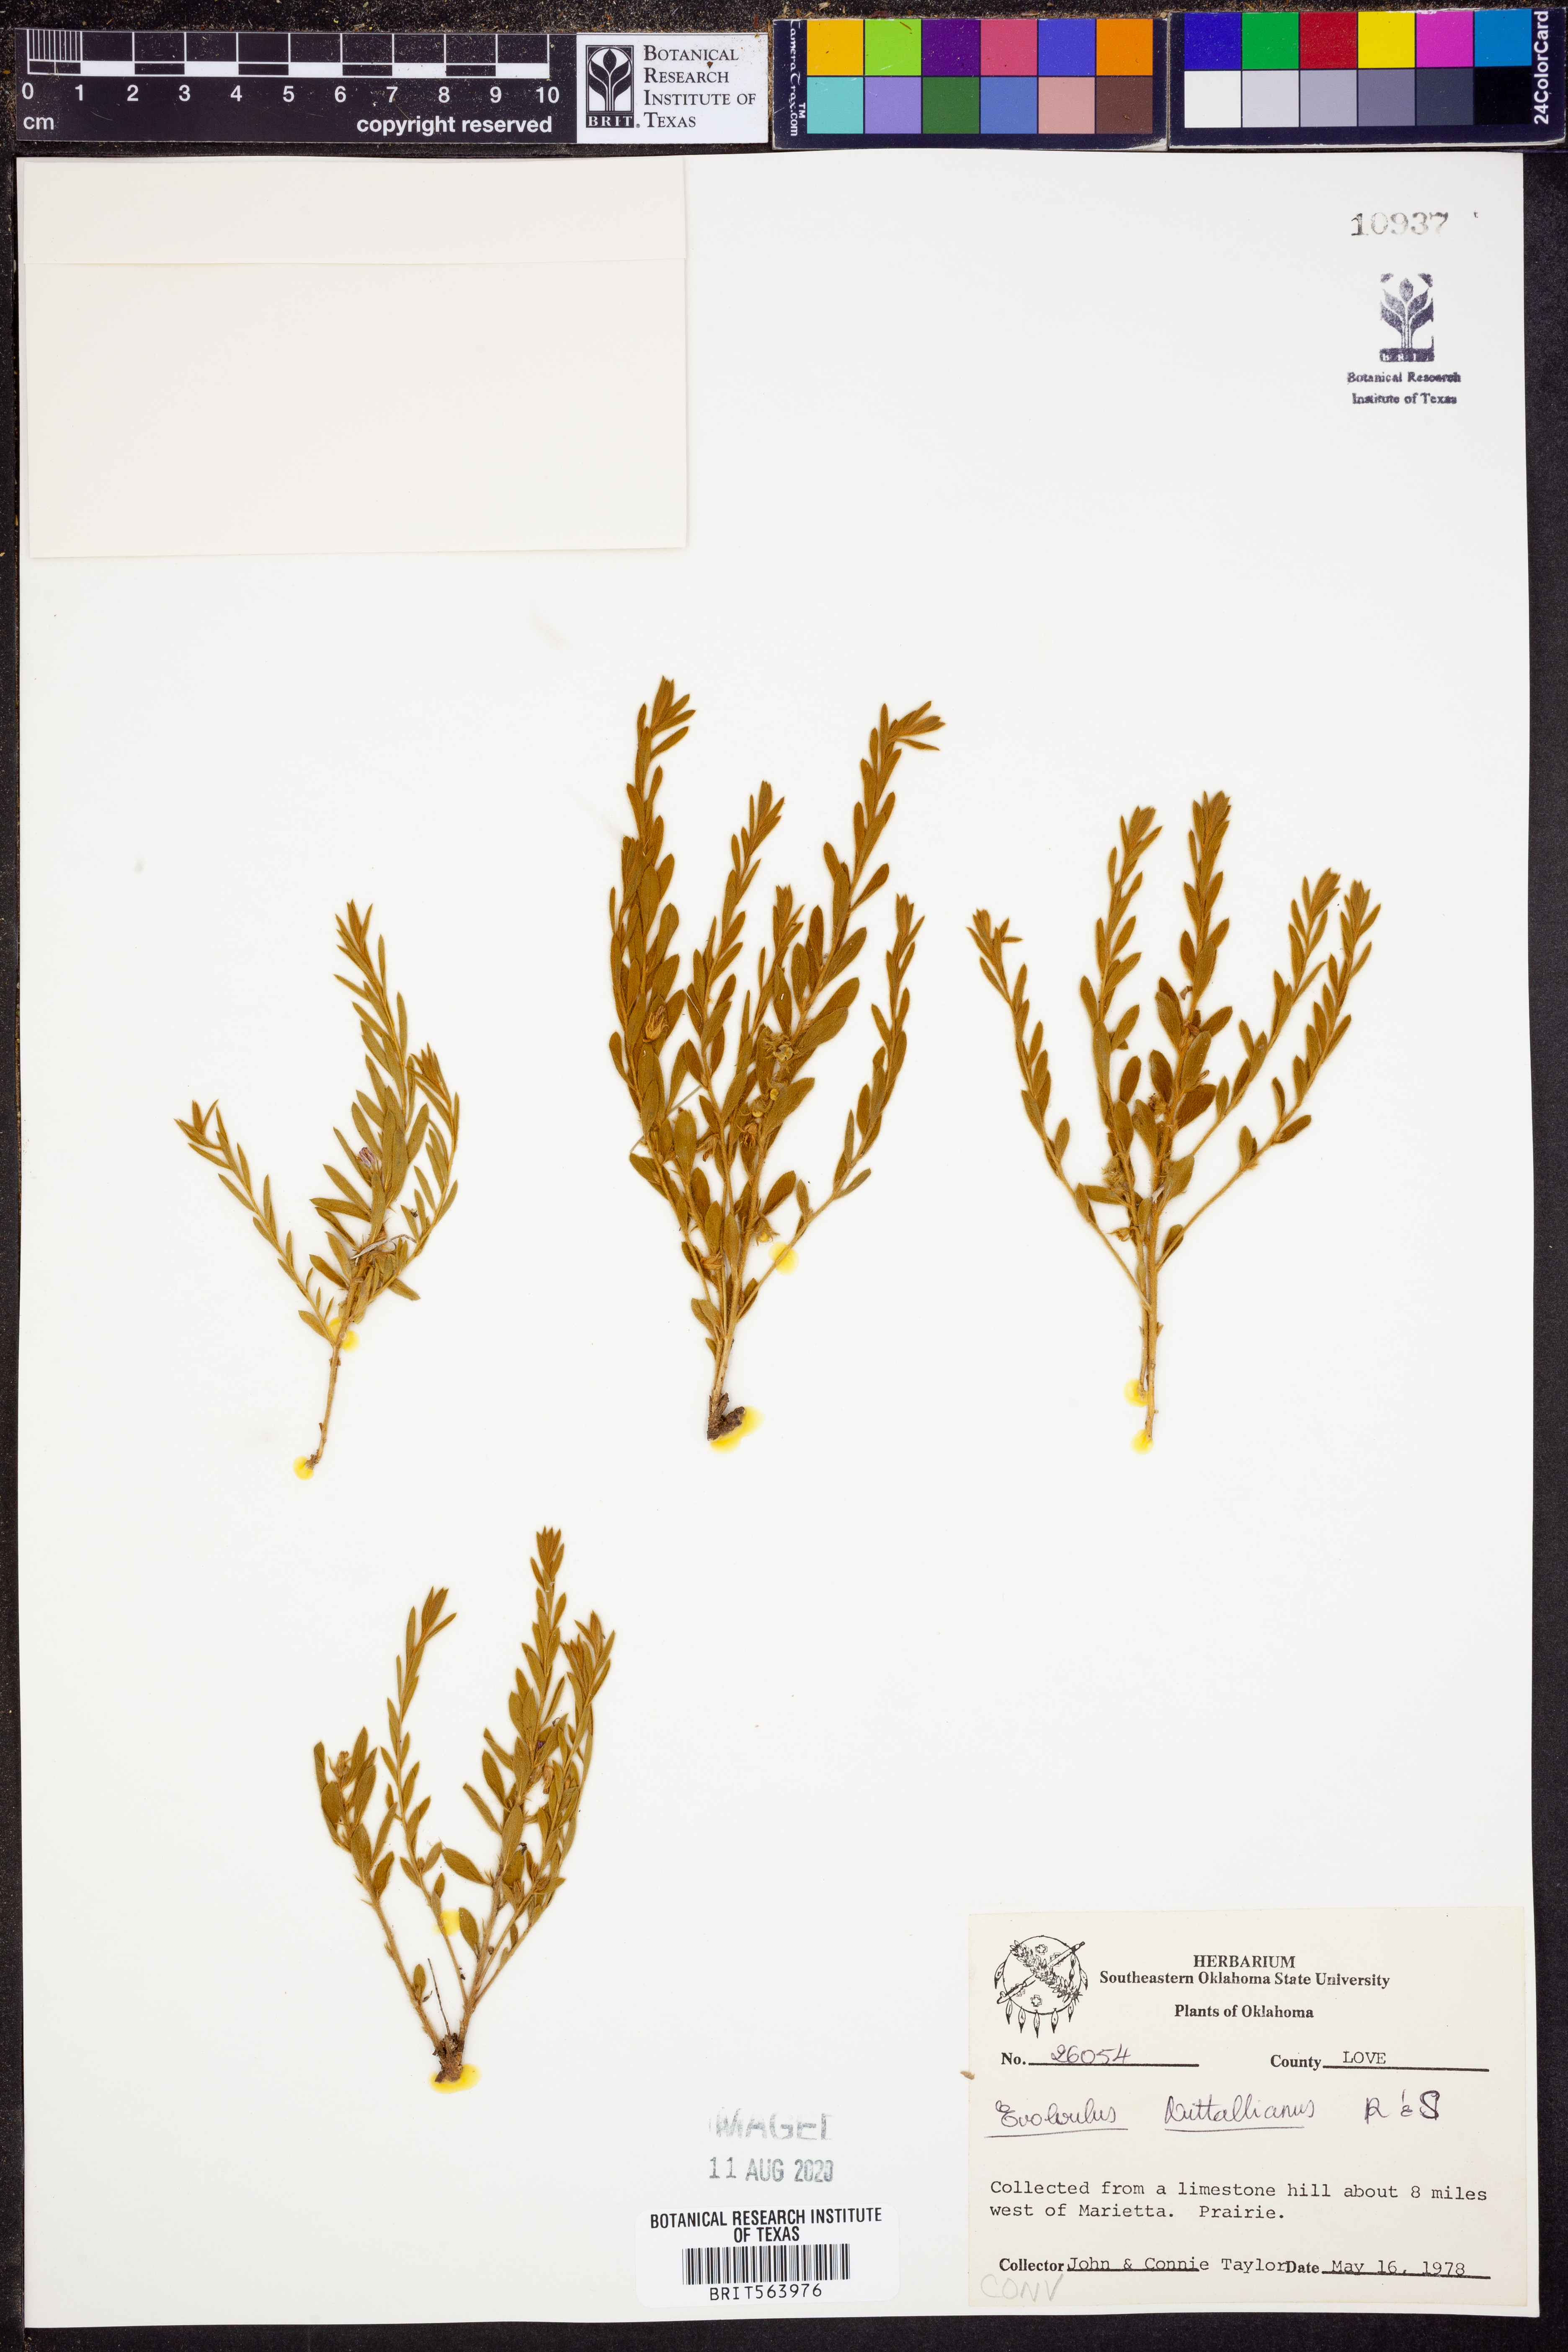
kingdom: Plantae
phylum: Tracheophyta
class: Magnoliopsida
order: Solanales
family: Convolvulaceae
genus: Evolvulus
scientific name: Evolvulus nuttallianus
